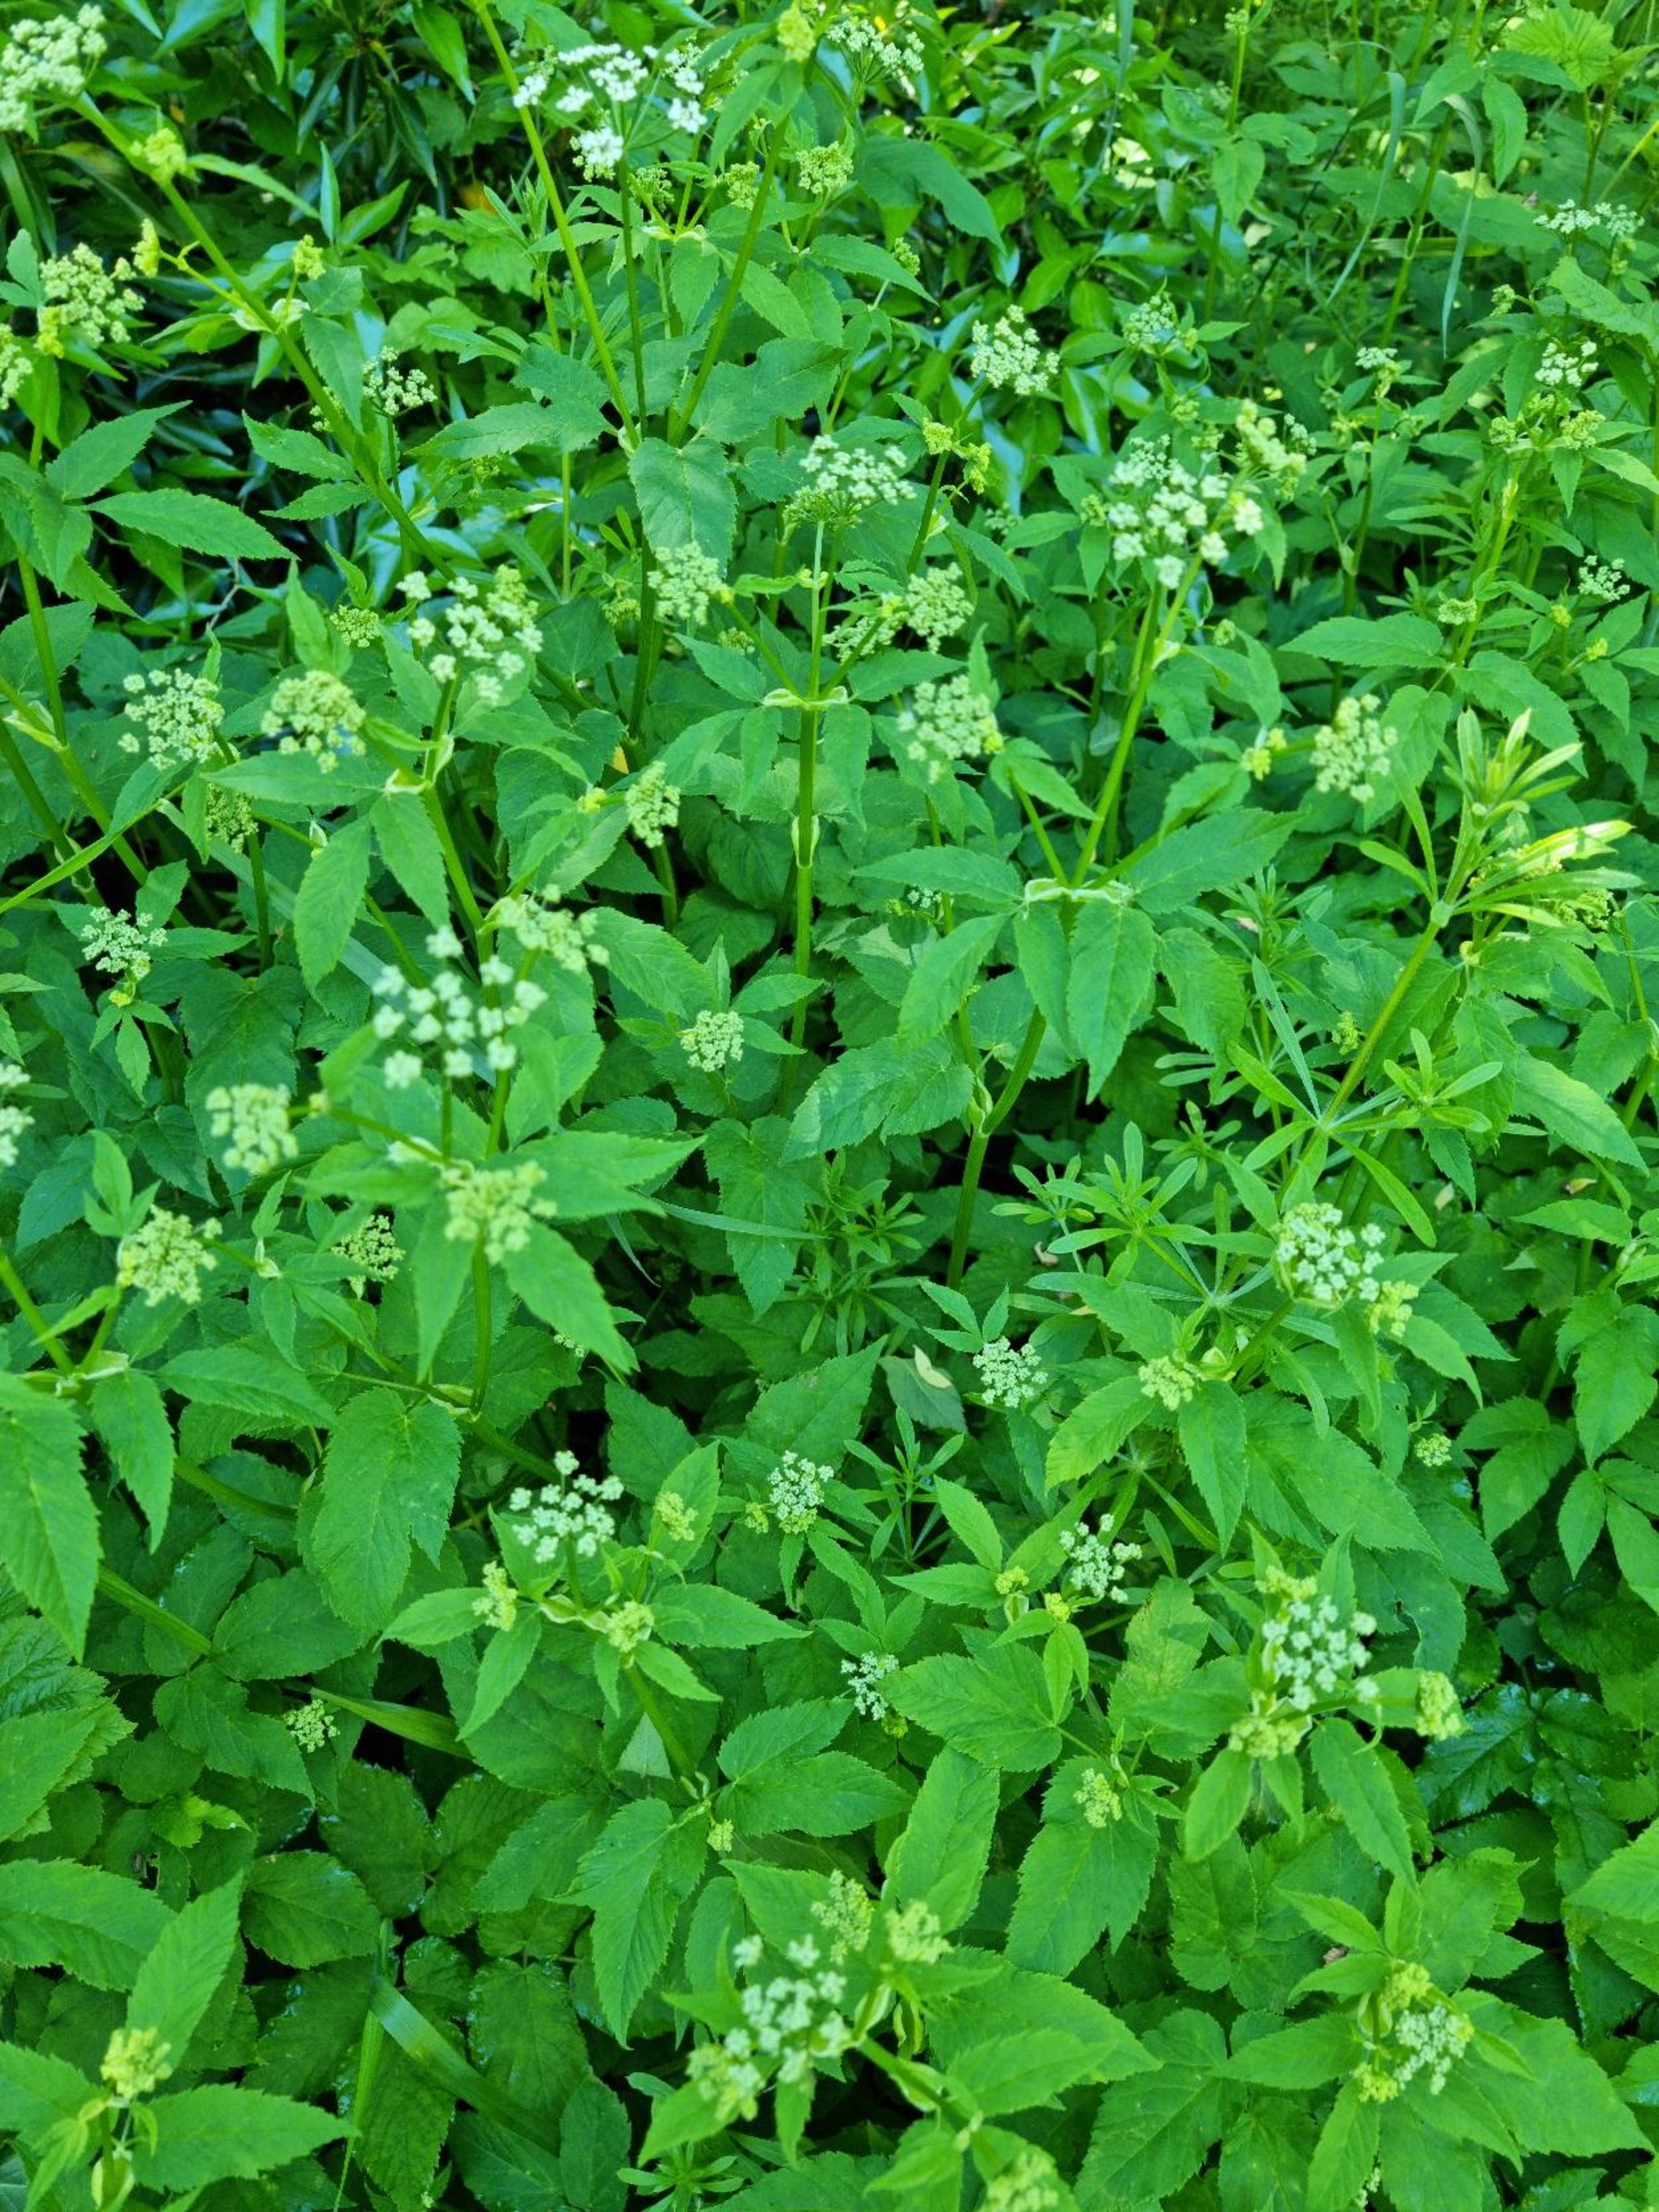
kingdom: Plantae
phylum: Tracheophyta
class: Magnoliopsida
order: Apiales
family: Apiaceae
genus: Aegopodium
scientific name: Aegopodium podagraria
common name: Skvalderkål
